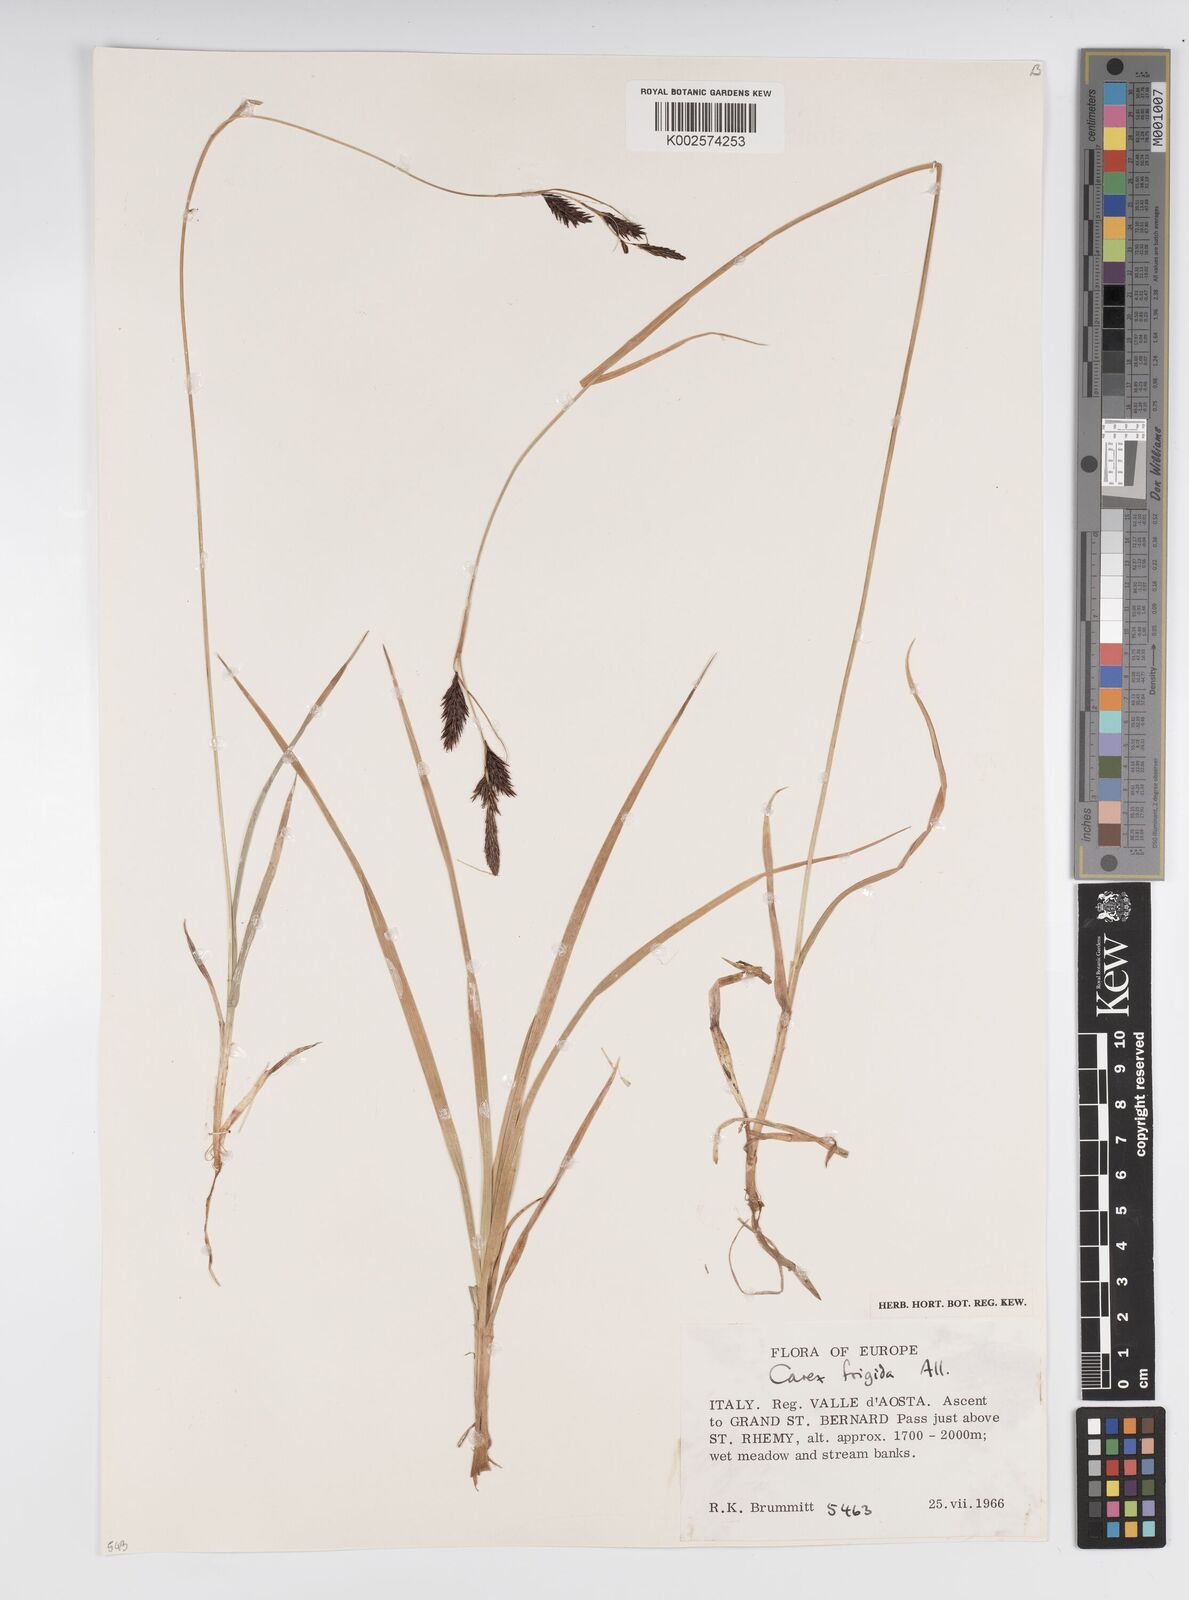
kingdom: Plantae
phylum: Tracheophyta
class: Liliopsida
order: Poales
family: Cyperaceae
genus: Carex
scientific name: Carex frigida
